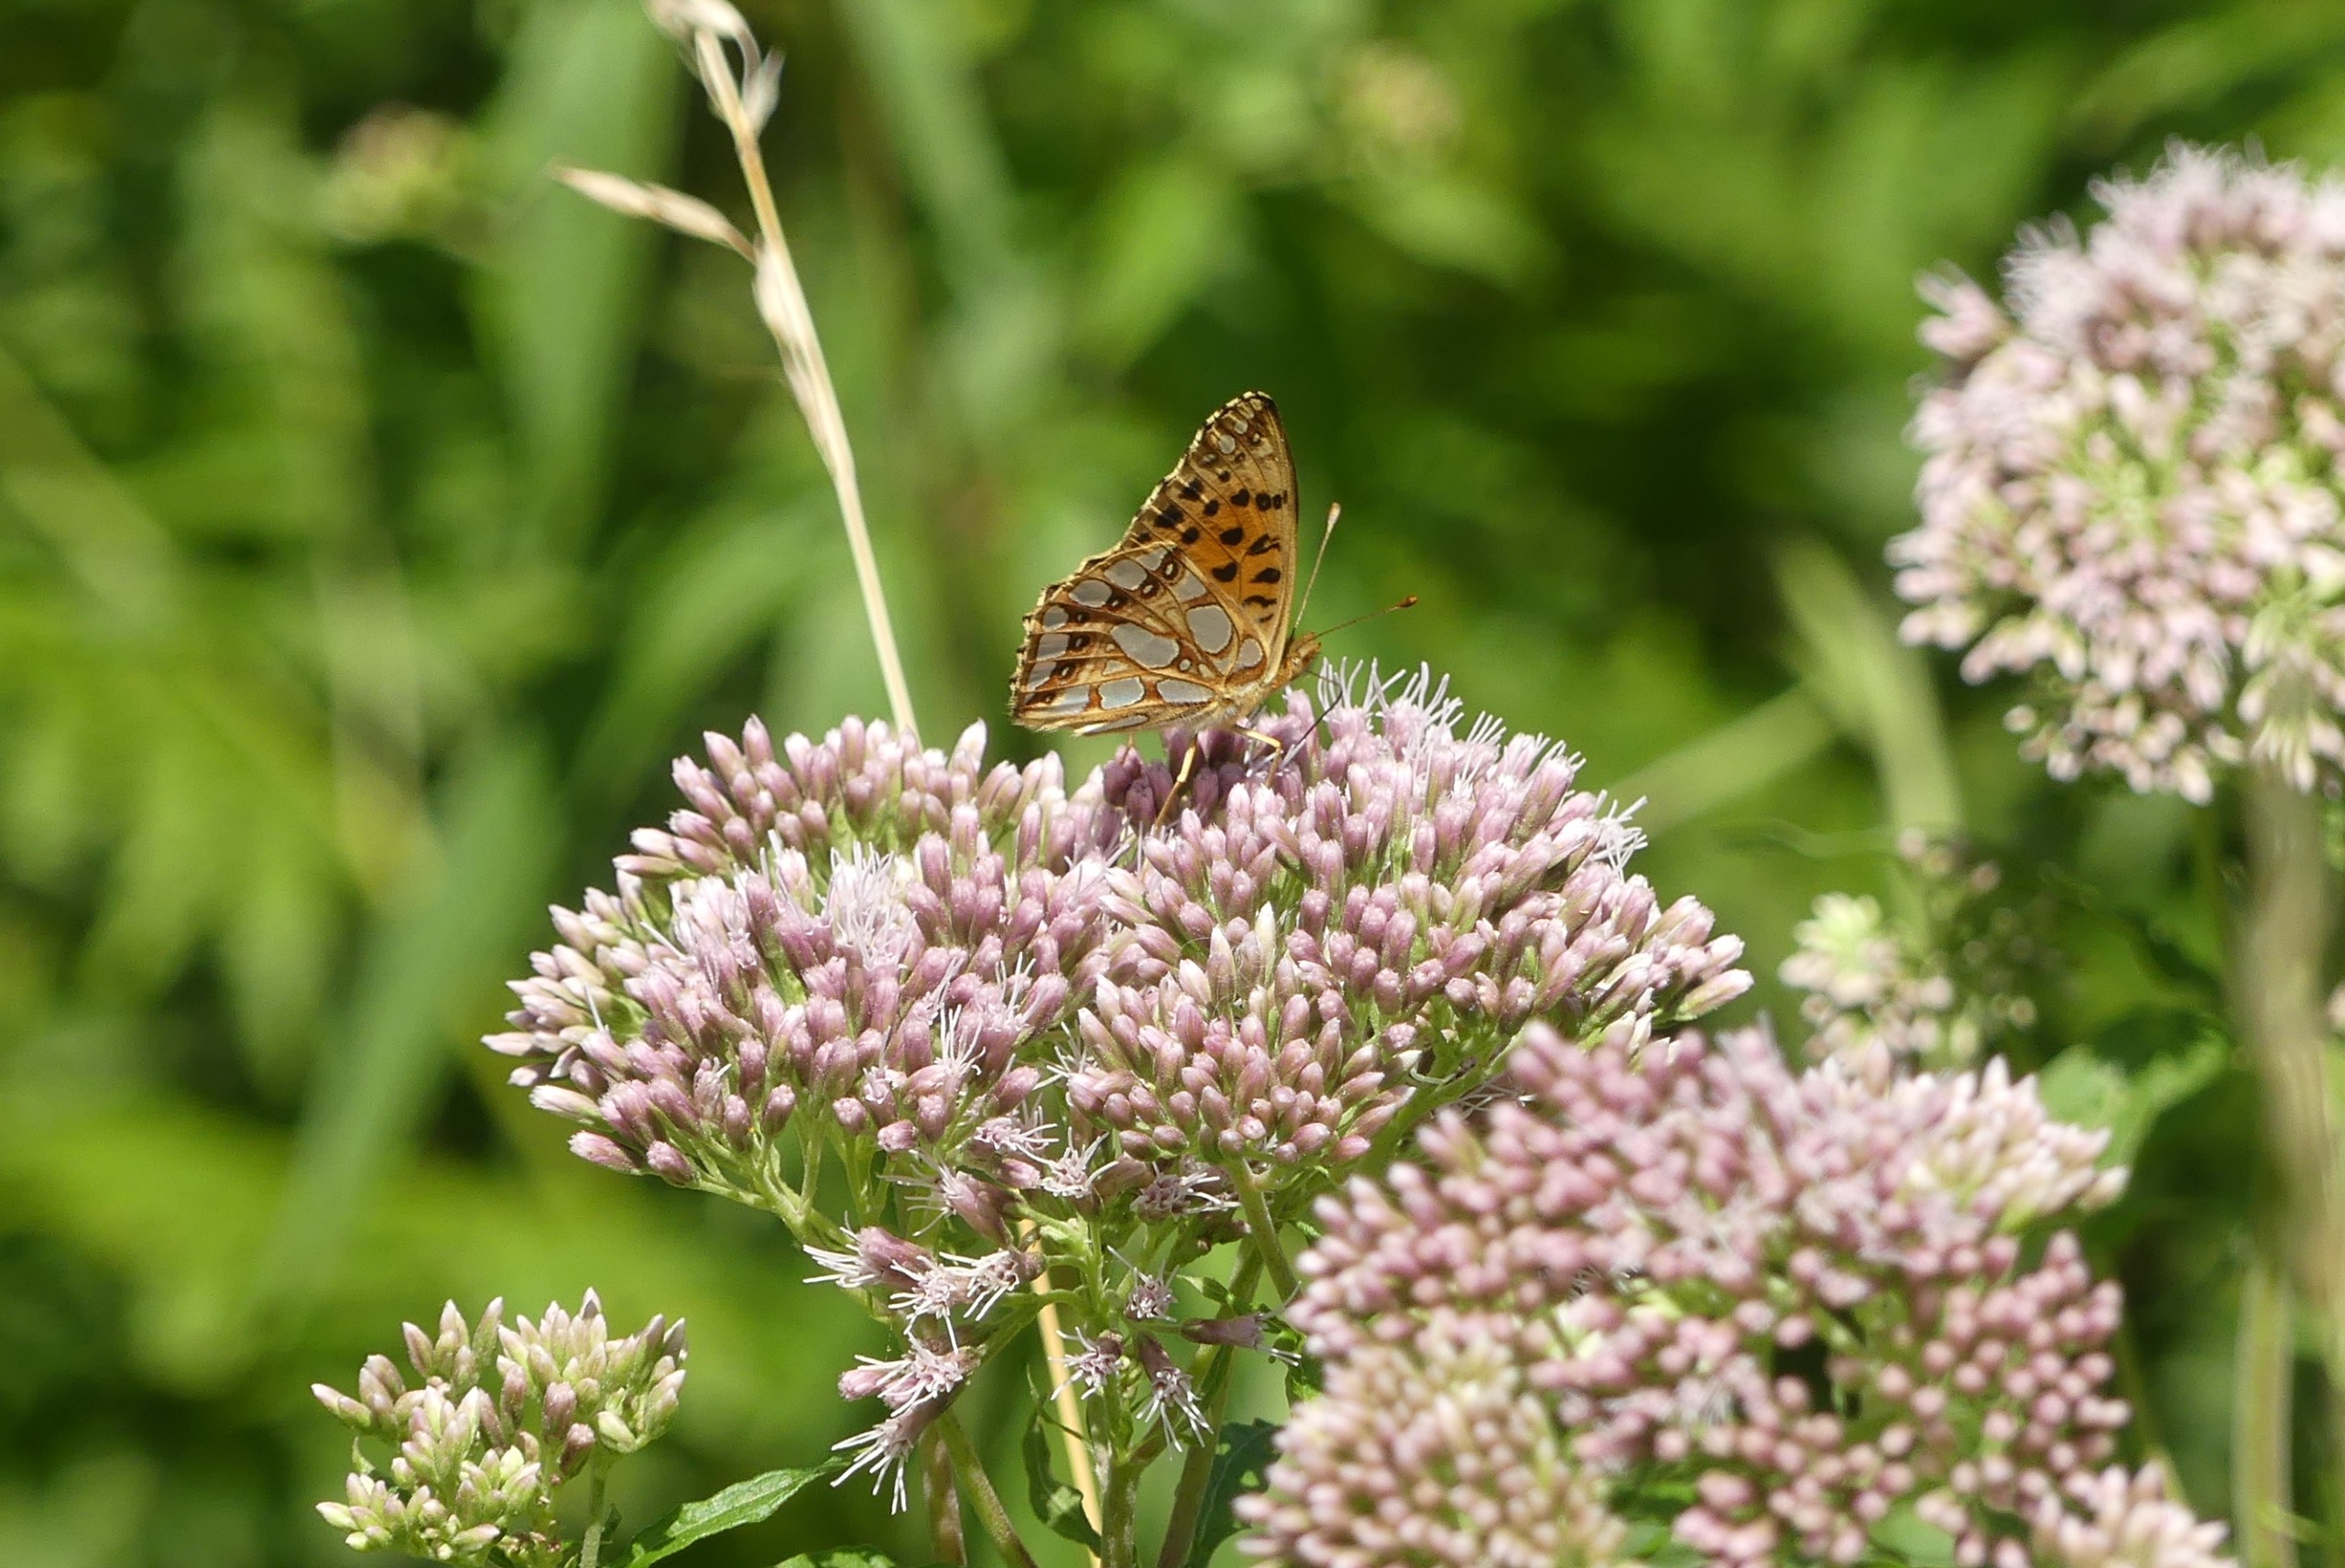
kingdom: Animalia
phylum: Arthropoda
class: Insecta
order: Lepidoptera
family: Nymphalidae
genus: Issoria
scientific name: Issoria lathonia
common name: Storplettet perlemorsommerfugl
